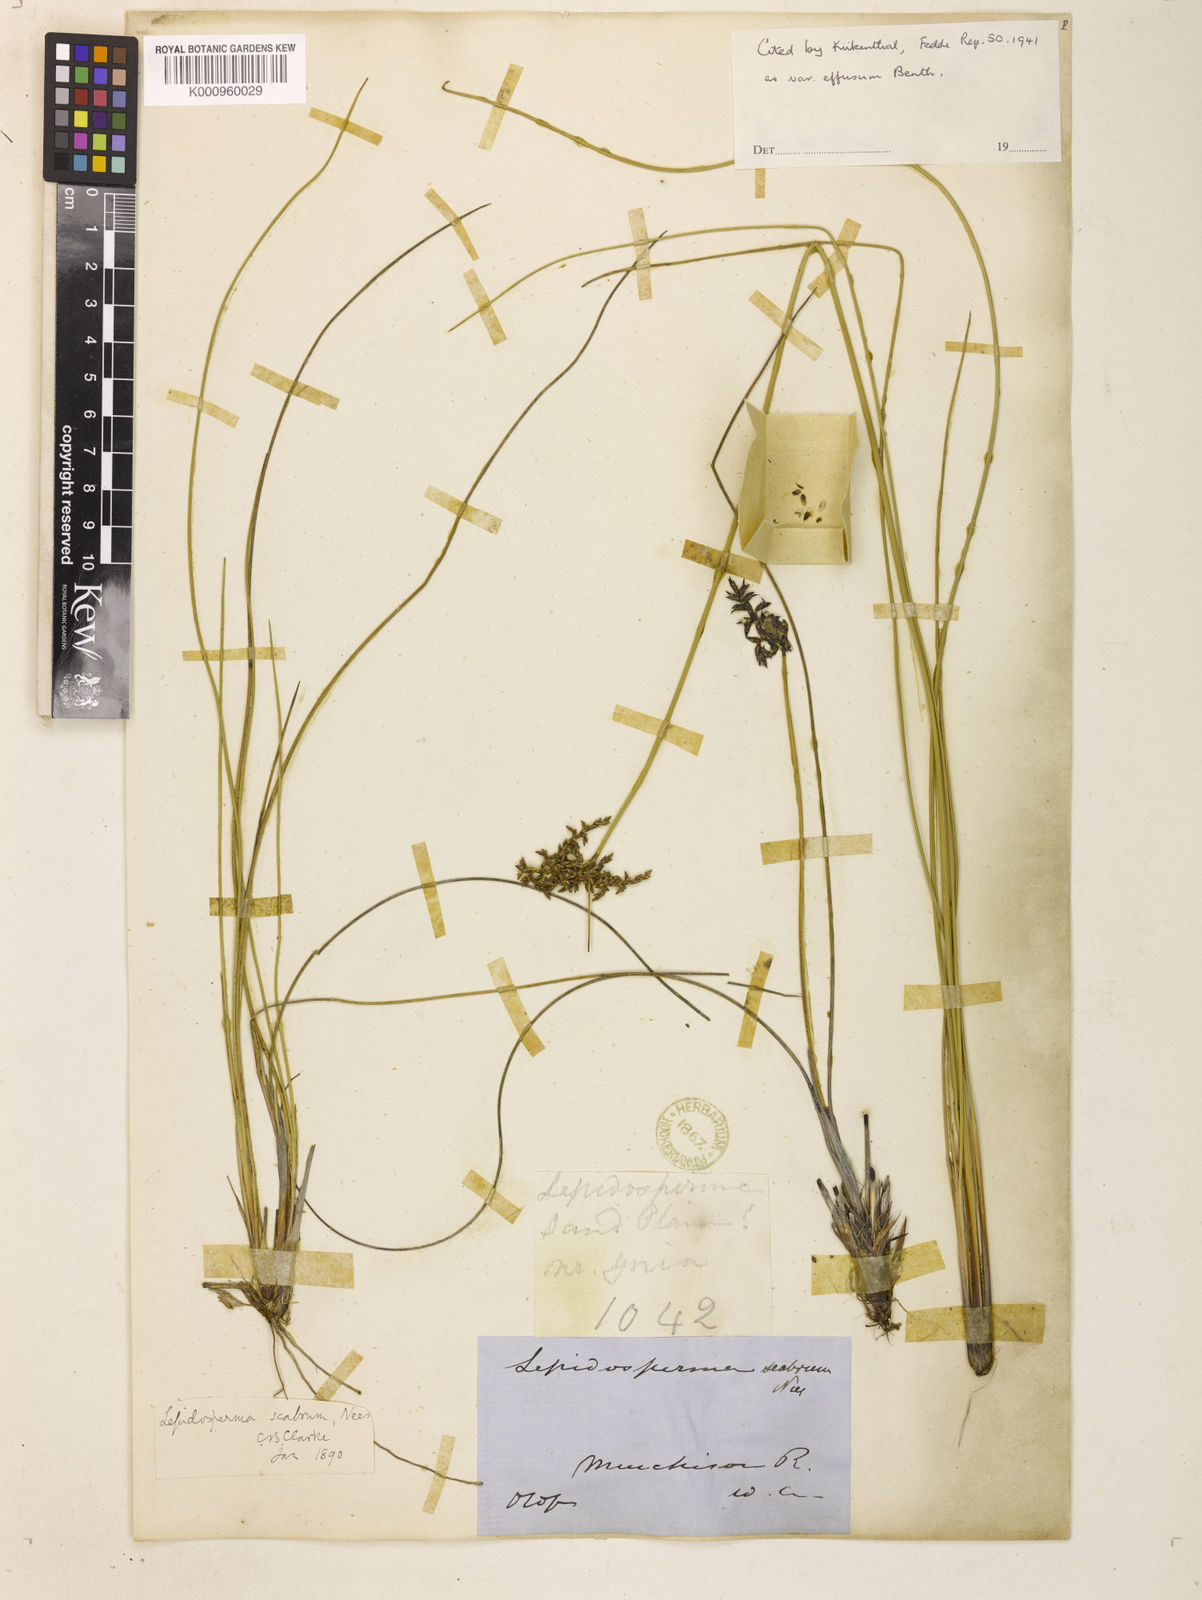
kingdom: Plantae
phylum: Tracheophyta
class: Liliopsida
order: Poales
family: Cyperaceae
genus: Lepidosperma
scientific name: Lepidosperma scabrum
